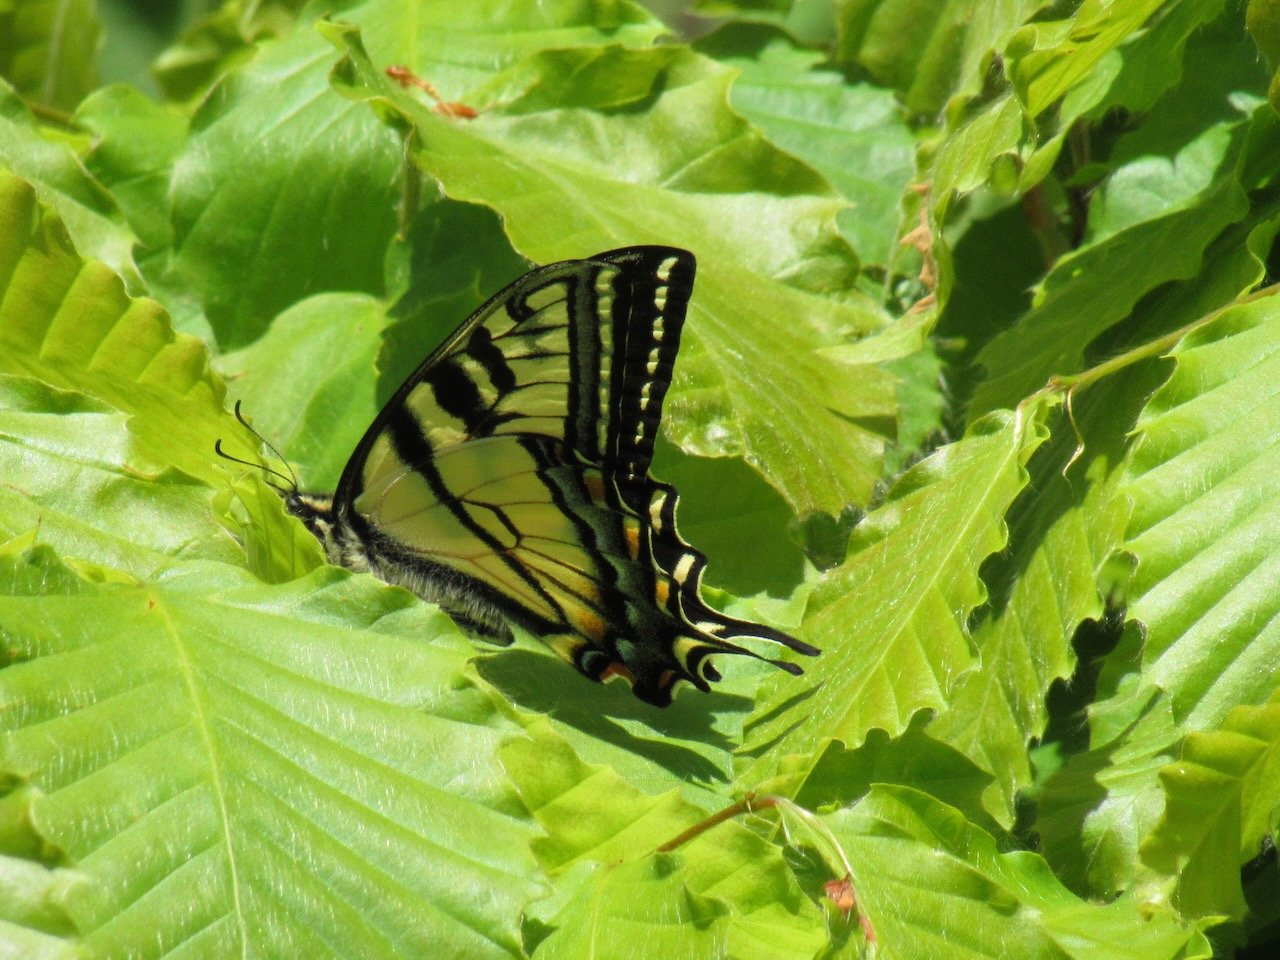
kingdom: Animalia
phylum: Arthropoda
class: Insecta
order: Lepidoptera
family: Papilionidae
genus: Pterourus
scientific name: Pterourus canadensis
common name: Canadian Tiger Swallowtail
